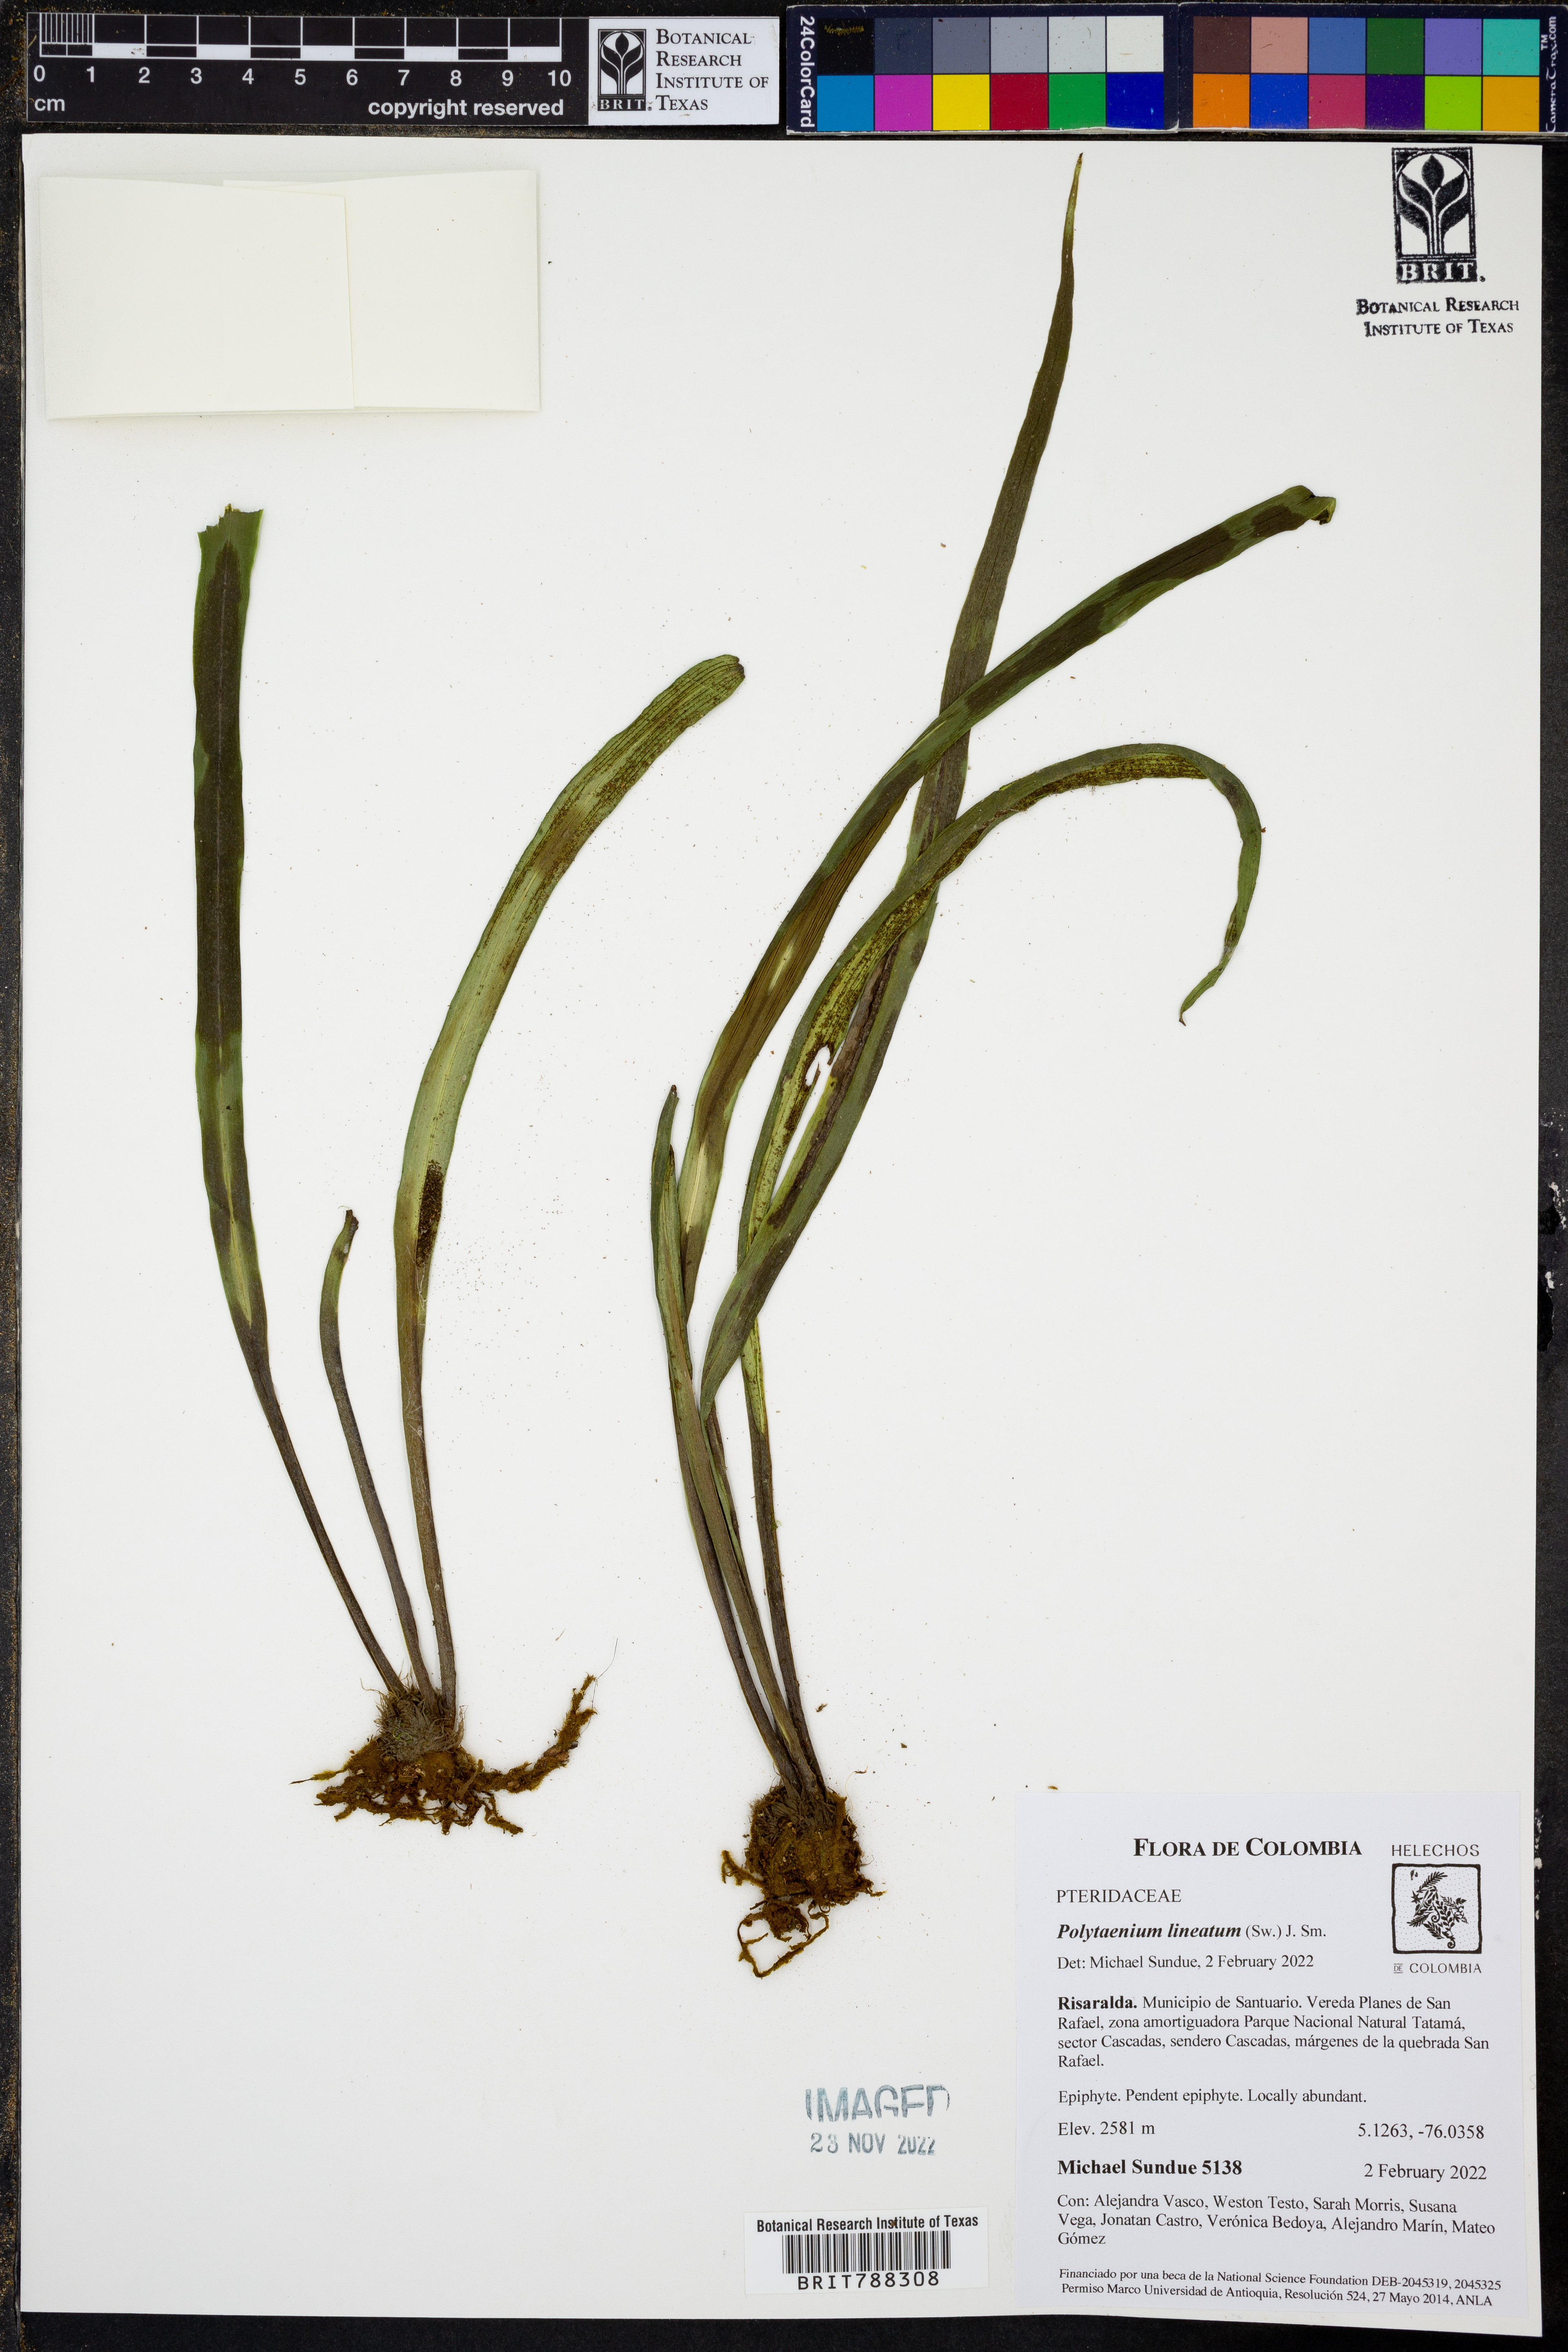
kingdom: Plantae
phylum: Tracheophyta
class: Polypodiopsida
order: Polypodiales
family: Pteridaceae
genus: Polytaenium
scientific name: Polytaenium lineatum
